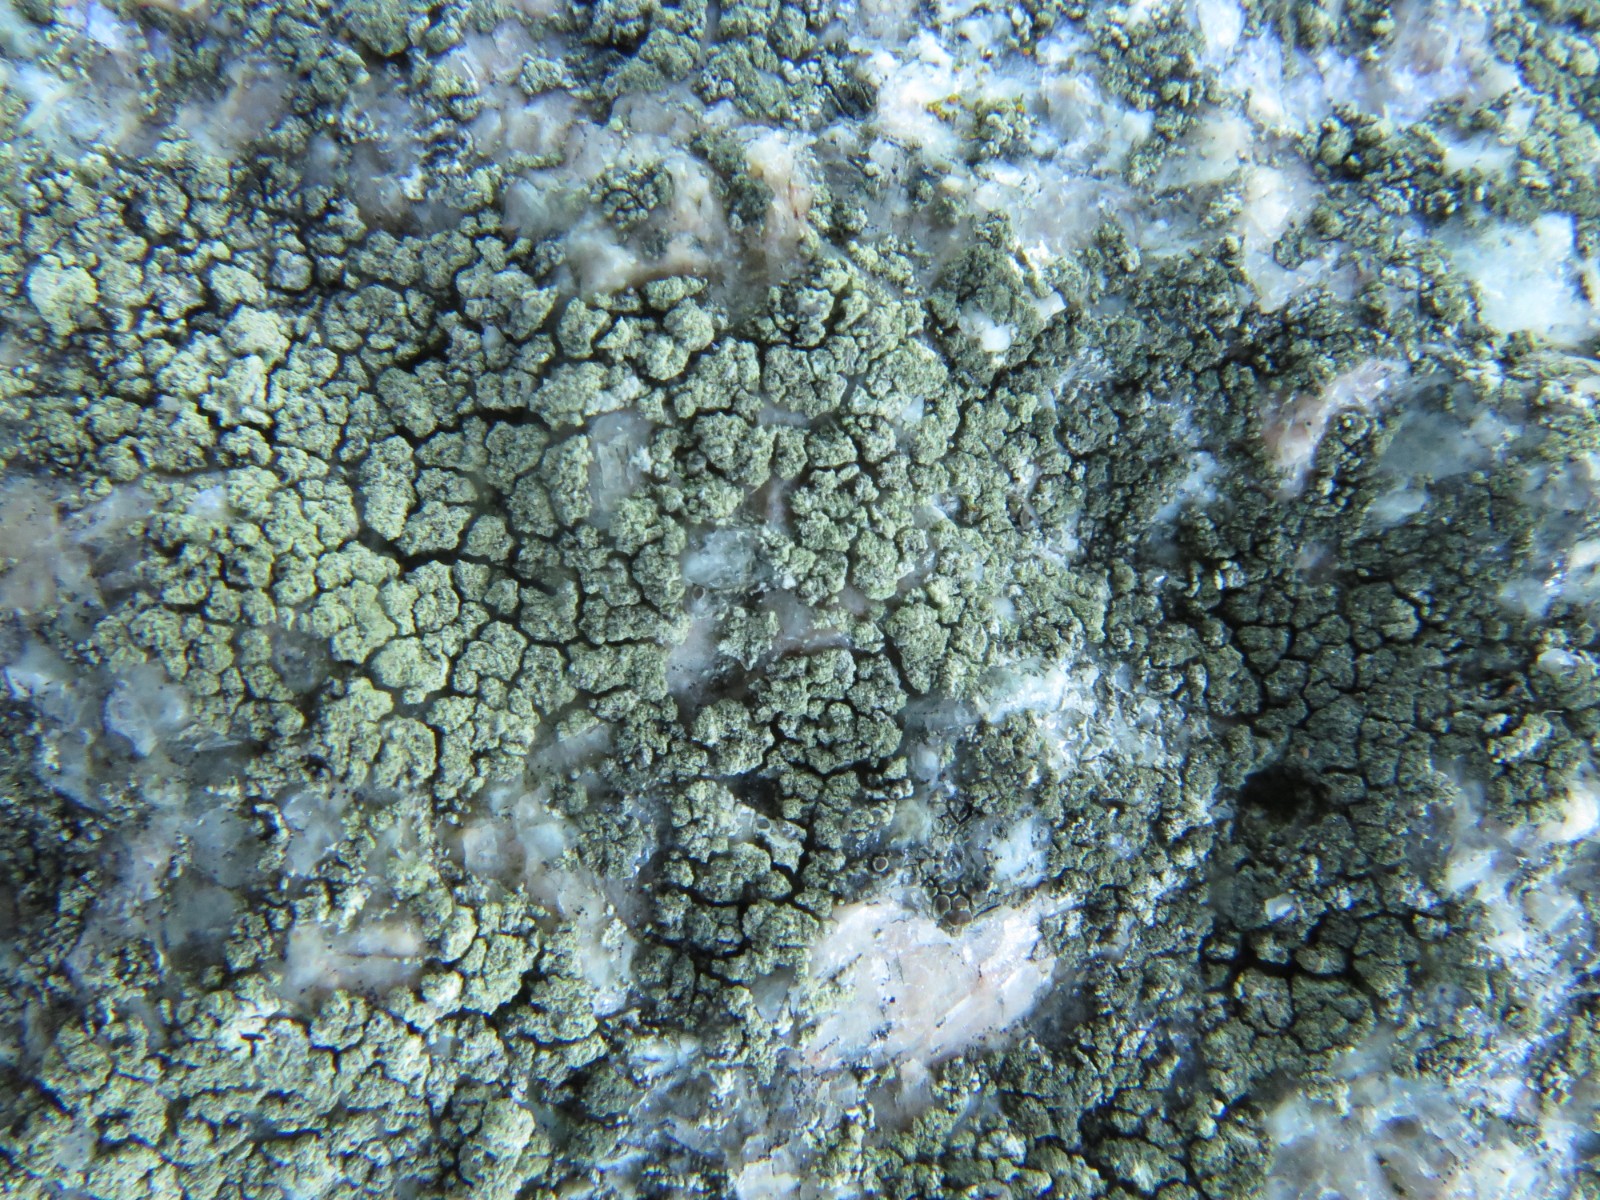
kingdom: Fungi
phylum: Ascomycota
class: Lecanoromycetes
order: Lecanorales
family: Lecanoraceae
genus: Lecanora
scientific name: Lecanora expallens
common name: bleggul kantskivelav
